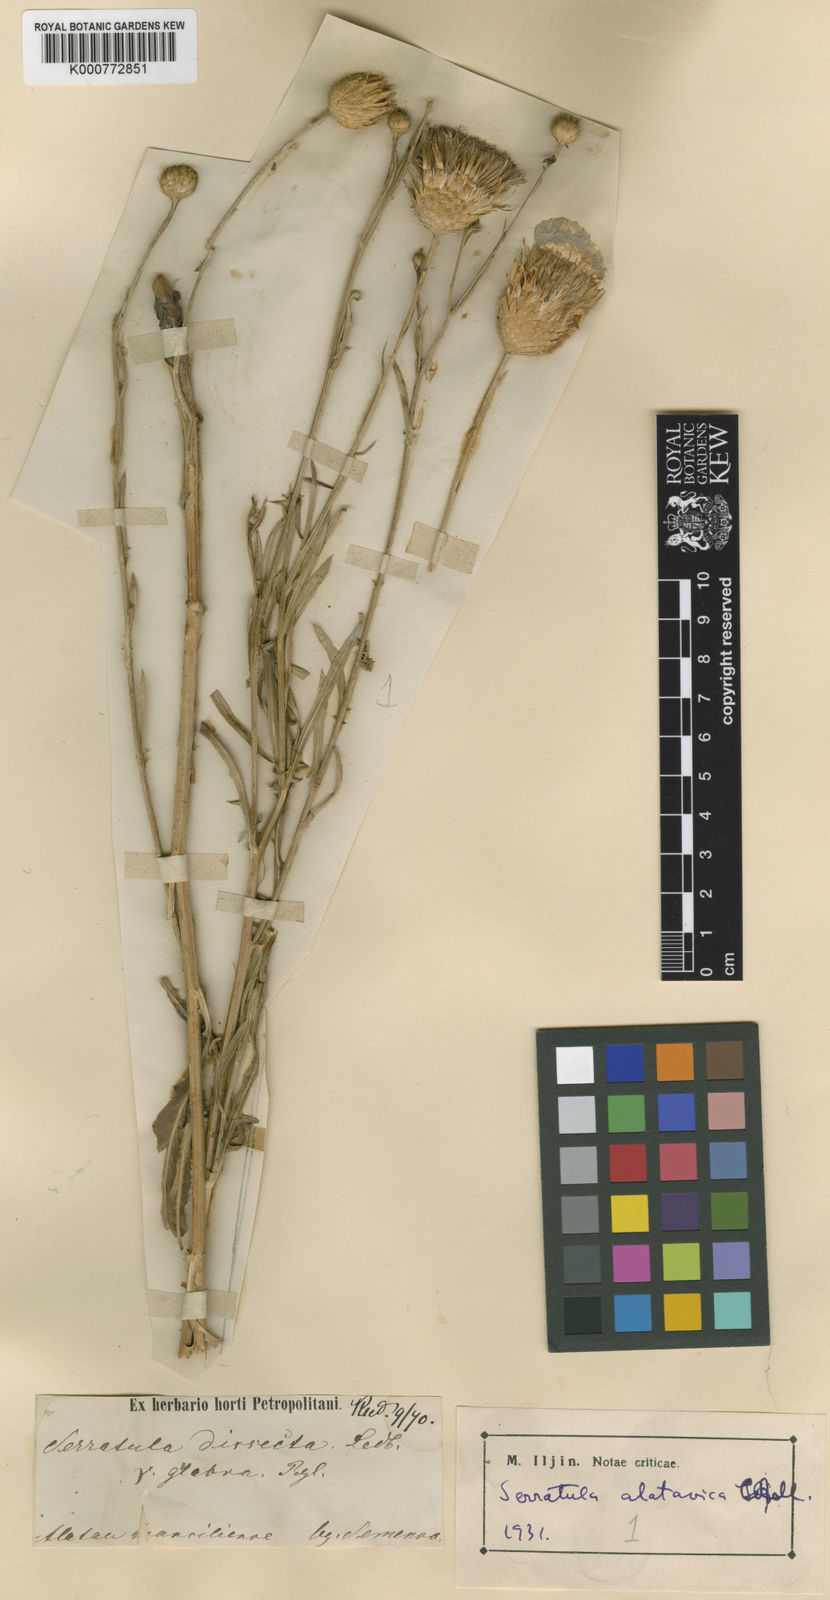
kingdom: Plantae
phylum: Tracheophyta
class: Magnoliopsida
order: Asterales
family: Asteraceae
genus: Serratula
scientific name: Serratula
